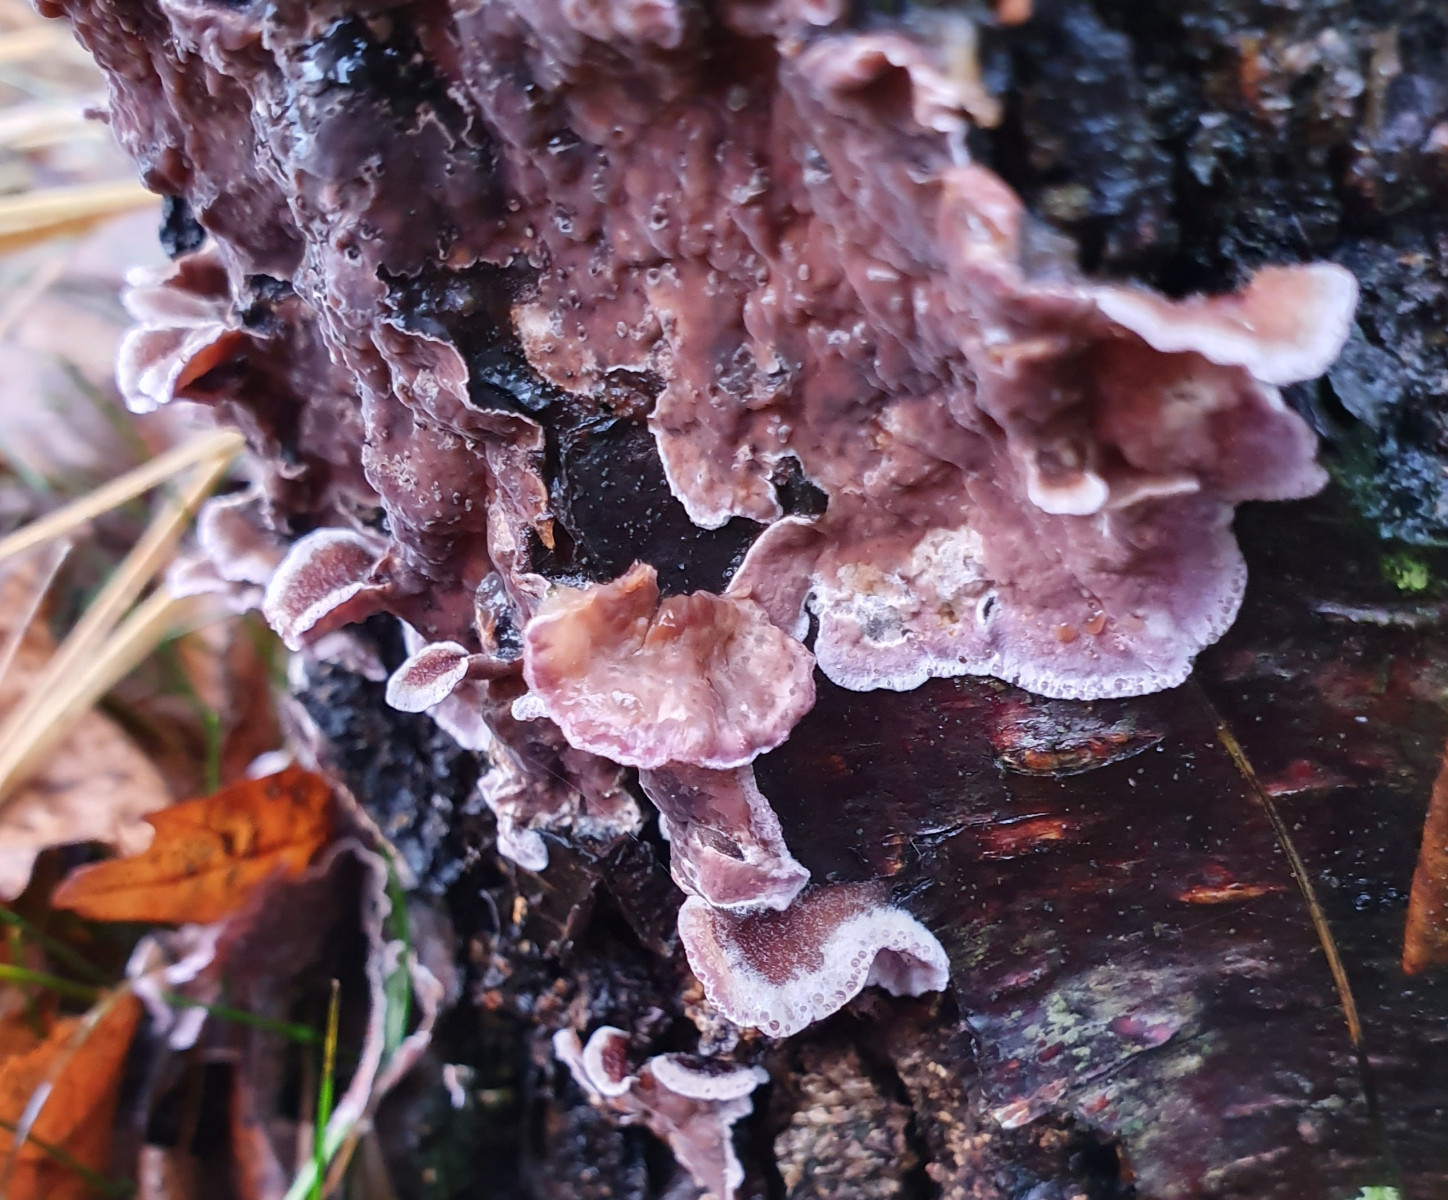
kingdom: Fungi
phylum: Basidiomycota
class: Agaricomycetes
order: Agaricales
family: Cyphellaceae
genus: Chondrostereum
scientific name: Chondrostereum purpureum
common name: purpurlædersvamp
